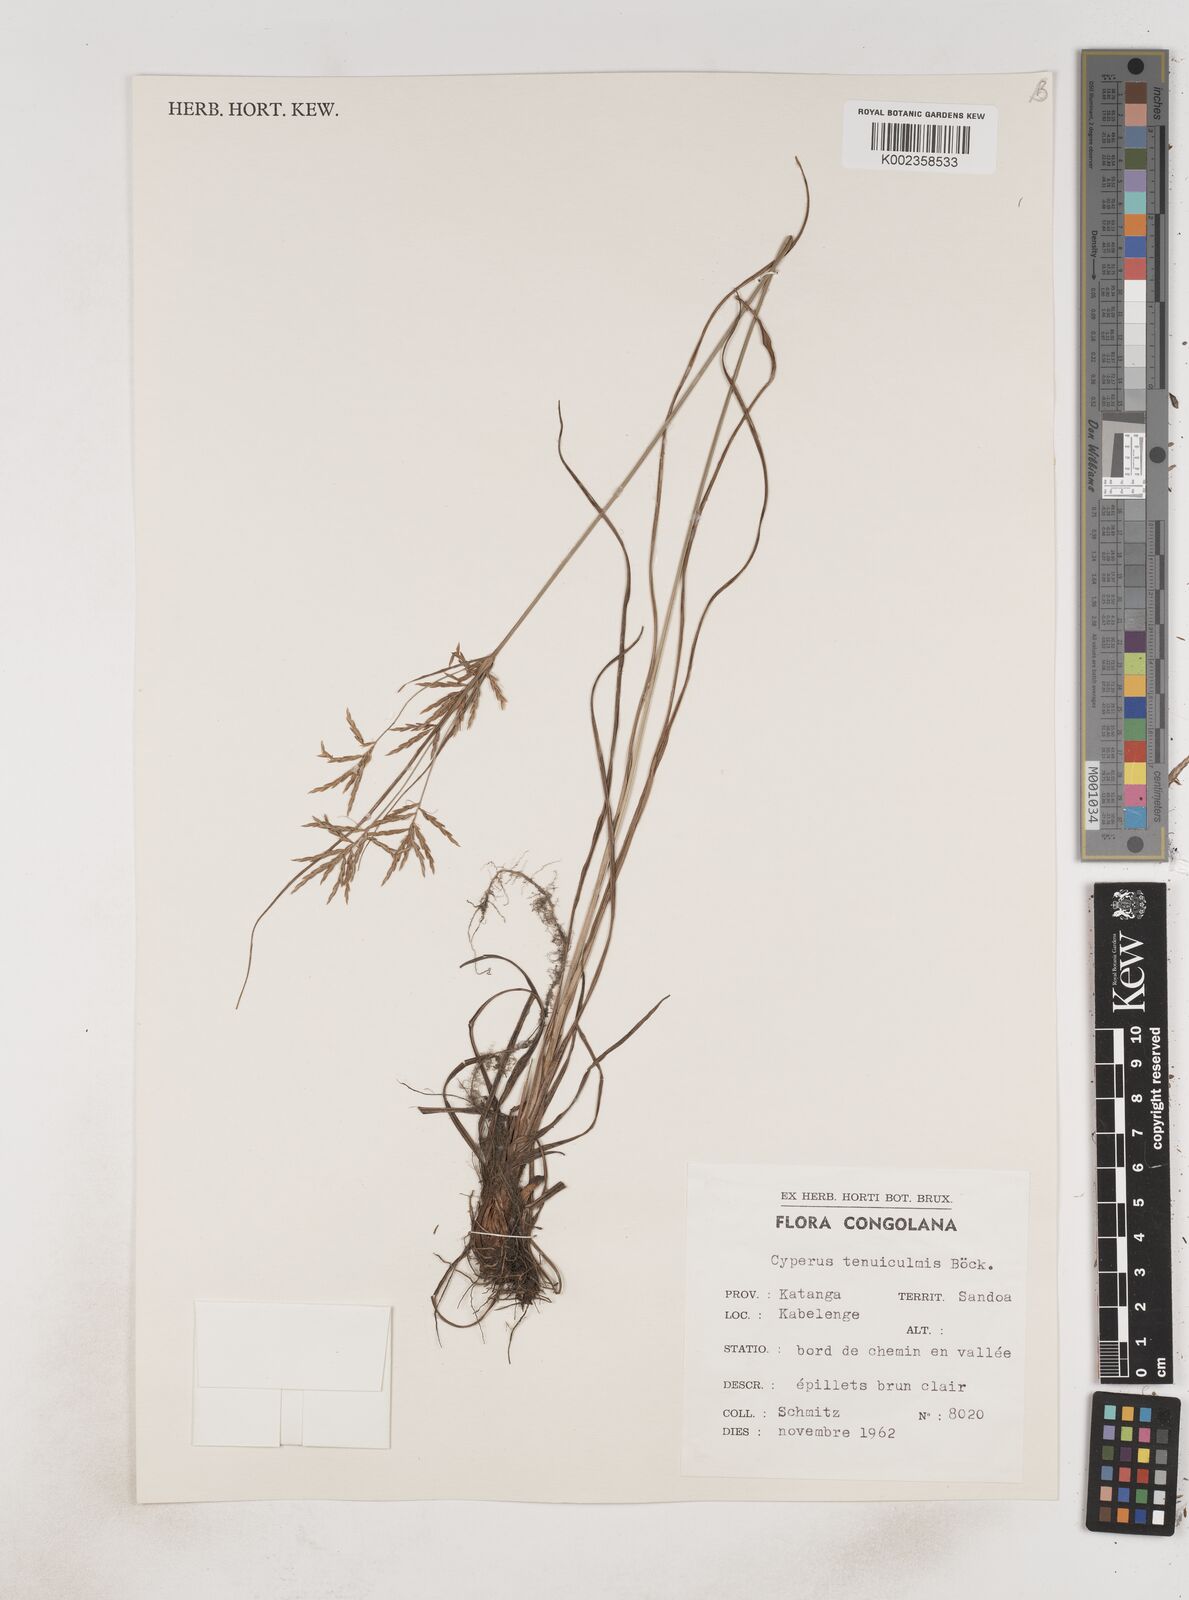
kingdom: Plantae
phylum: Tracheophyta
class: Liliopsida
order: Poales
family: Cyperaceae
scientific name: Cyperaceae
